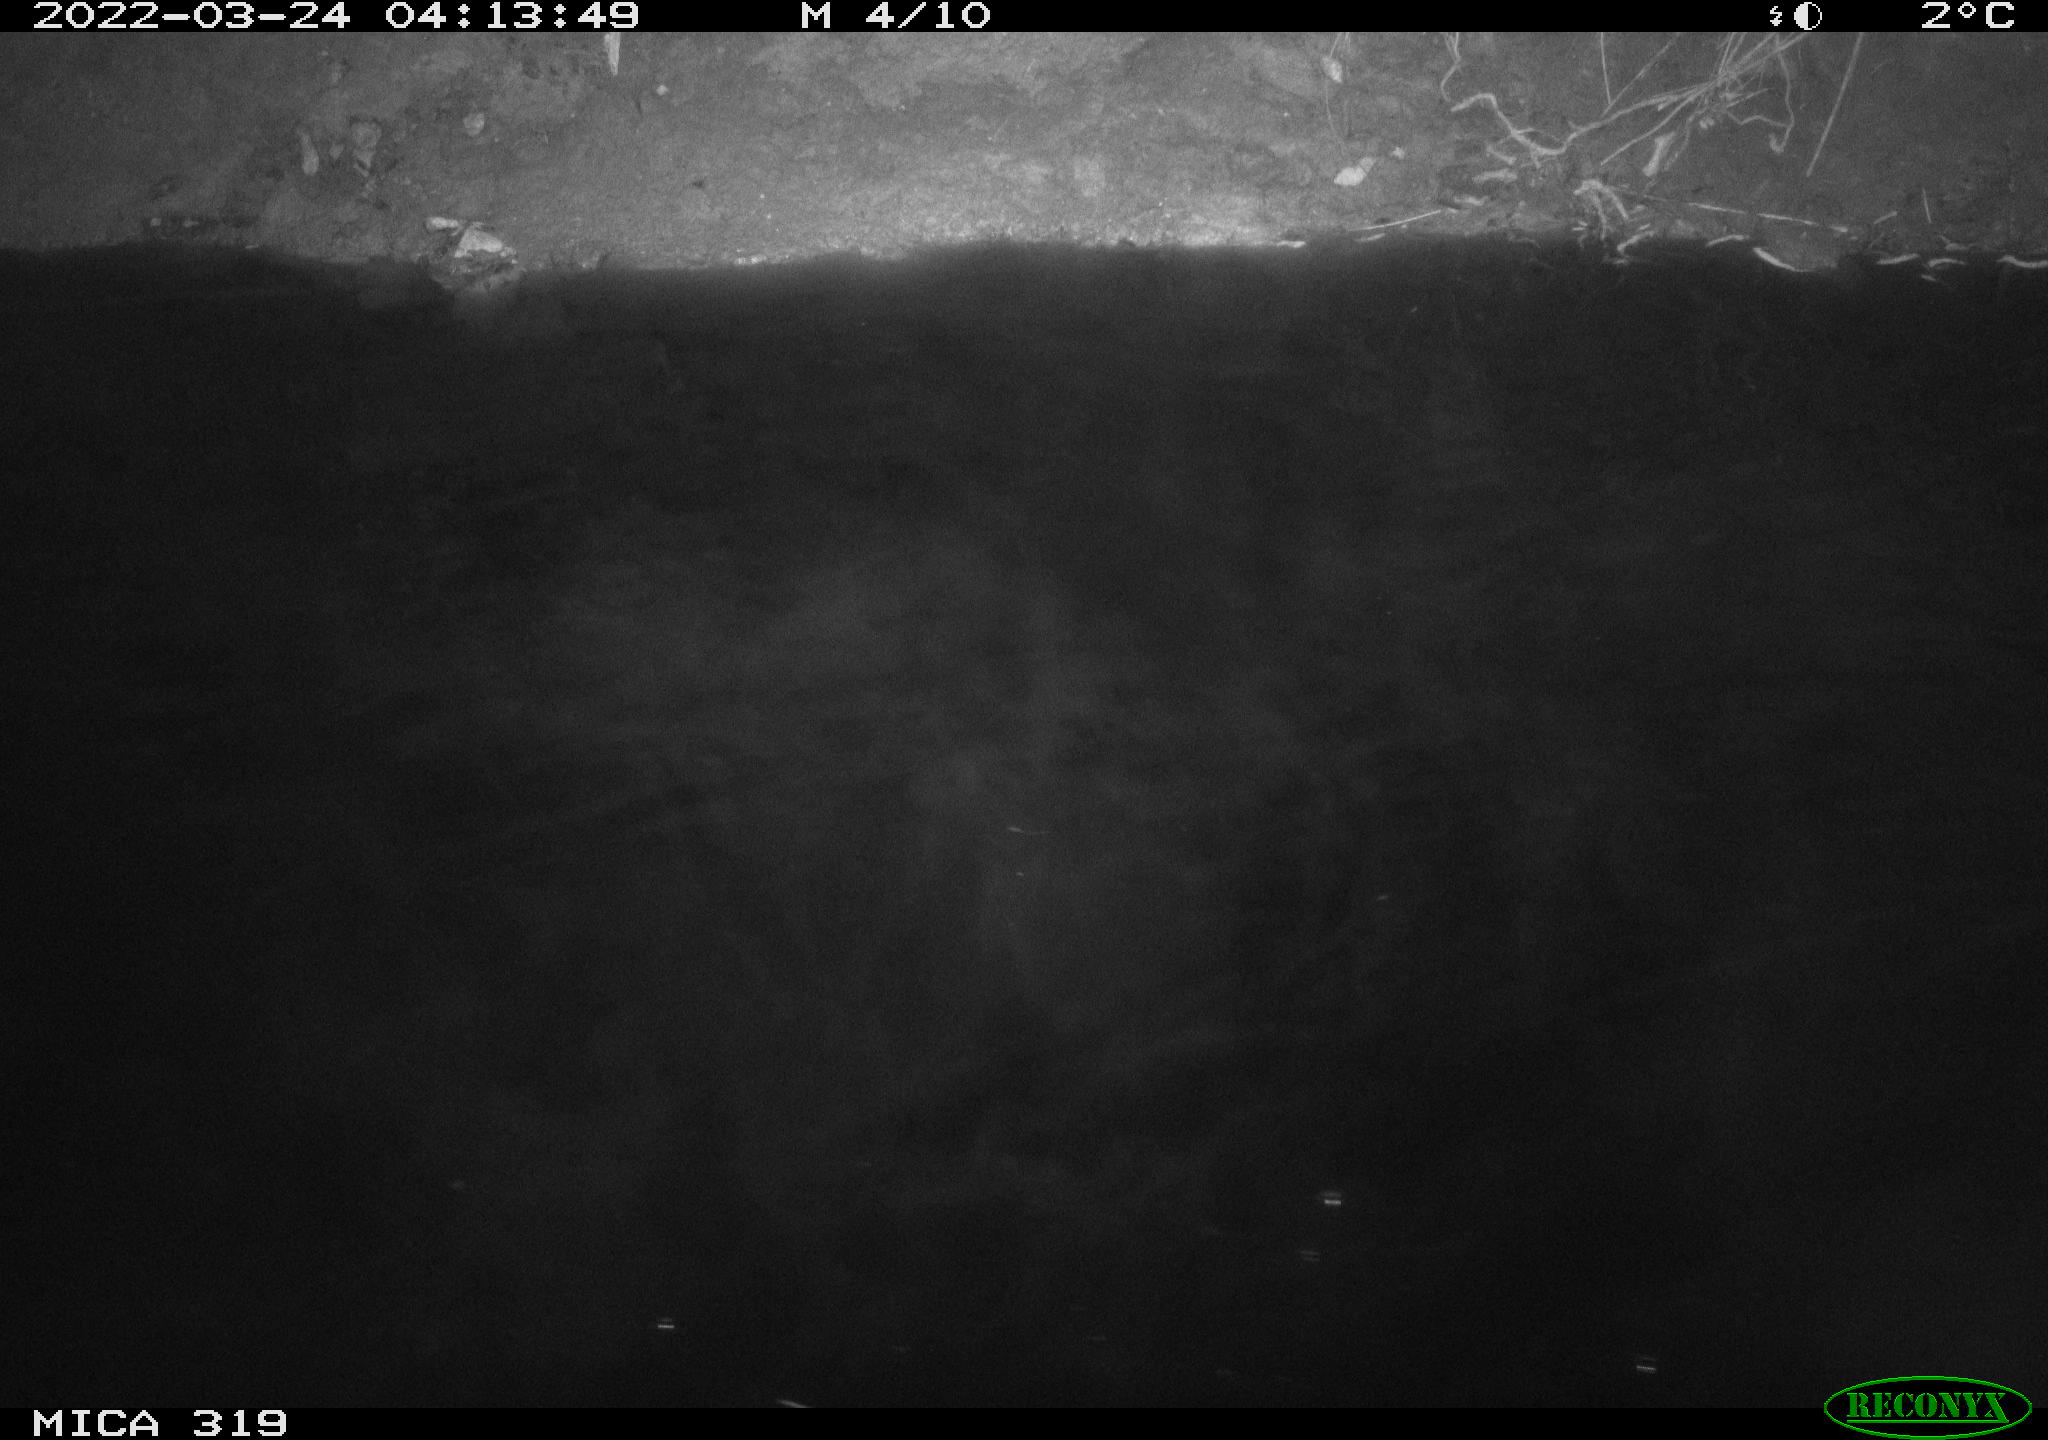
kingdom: Animalia
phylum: Chordata
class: Aves
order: Gruiformes
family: Rallidae
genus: Gallinula
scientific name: Gallinula chloropus
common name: Common moorhen
